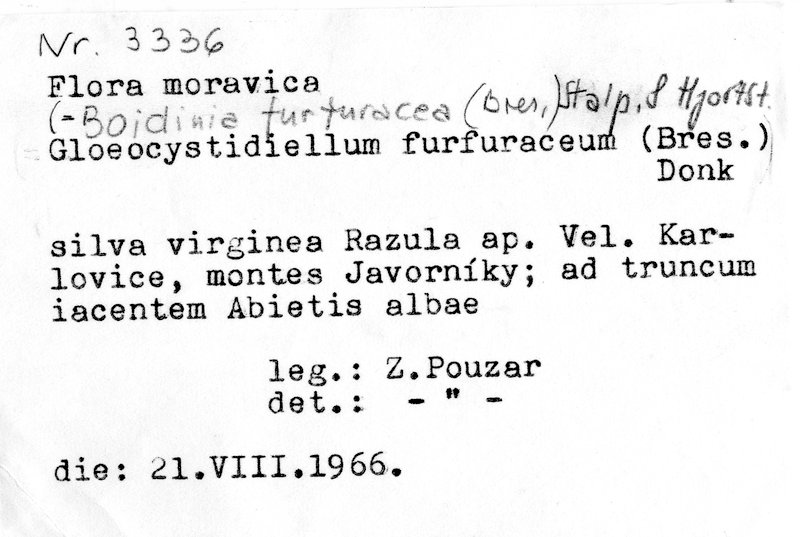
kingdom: Plantae
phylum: Tracheophyta
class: Pinopsida
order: Pinales
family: Pinaceae
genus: Abies
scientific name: Abies alba
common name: Silver fir
